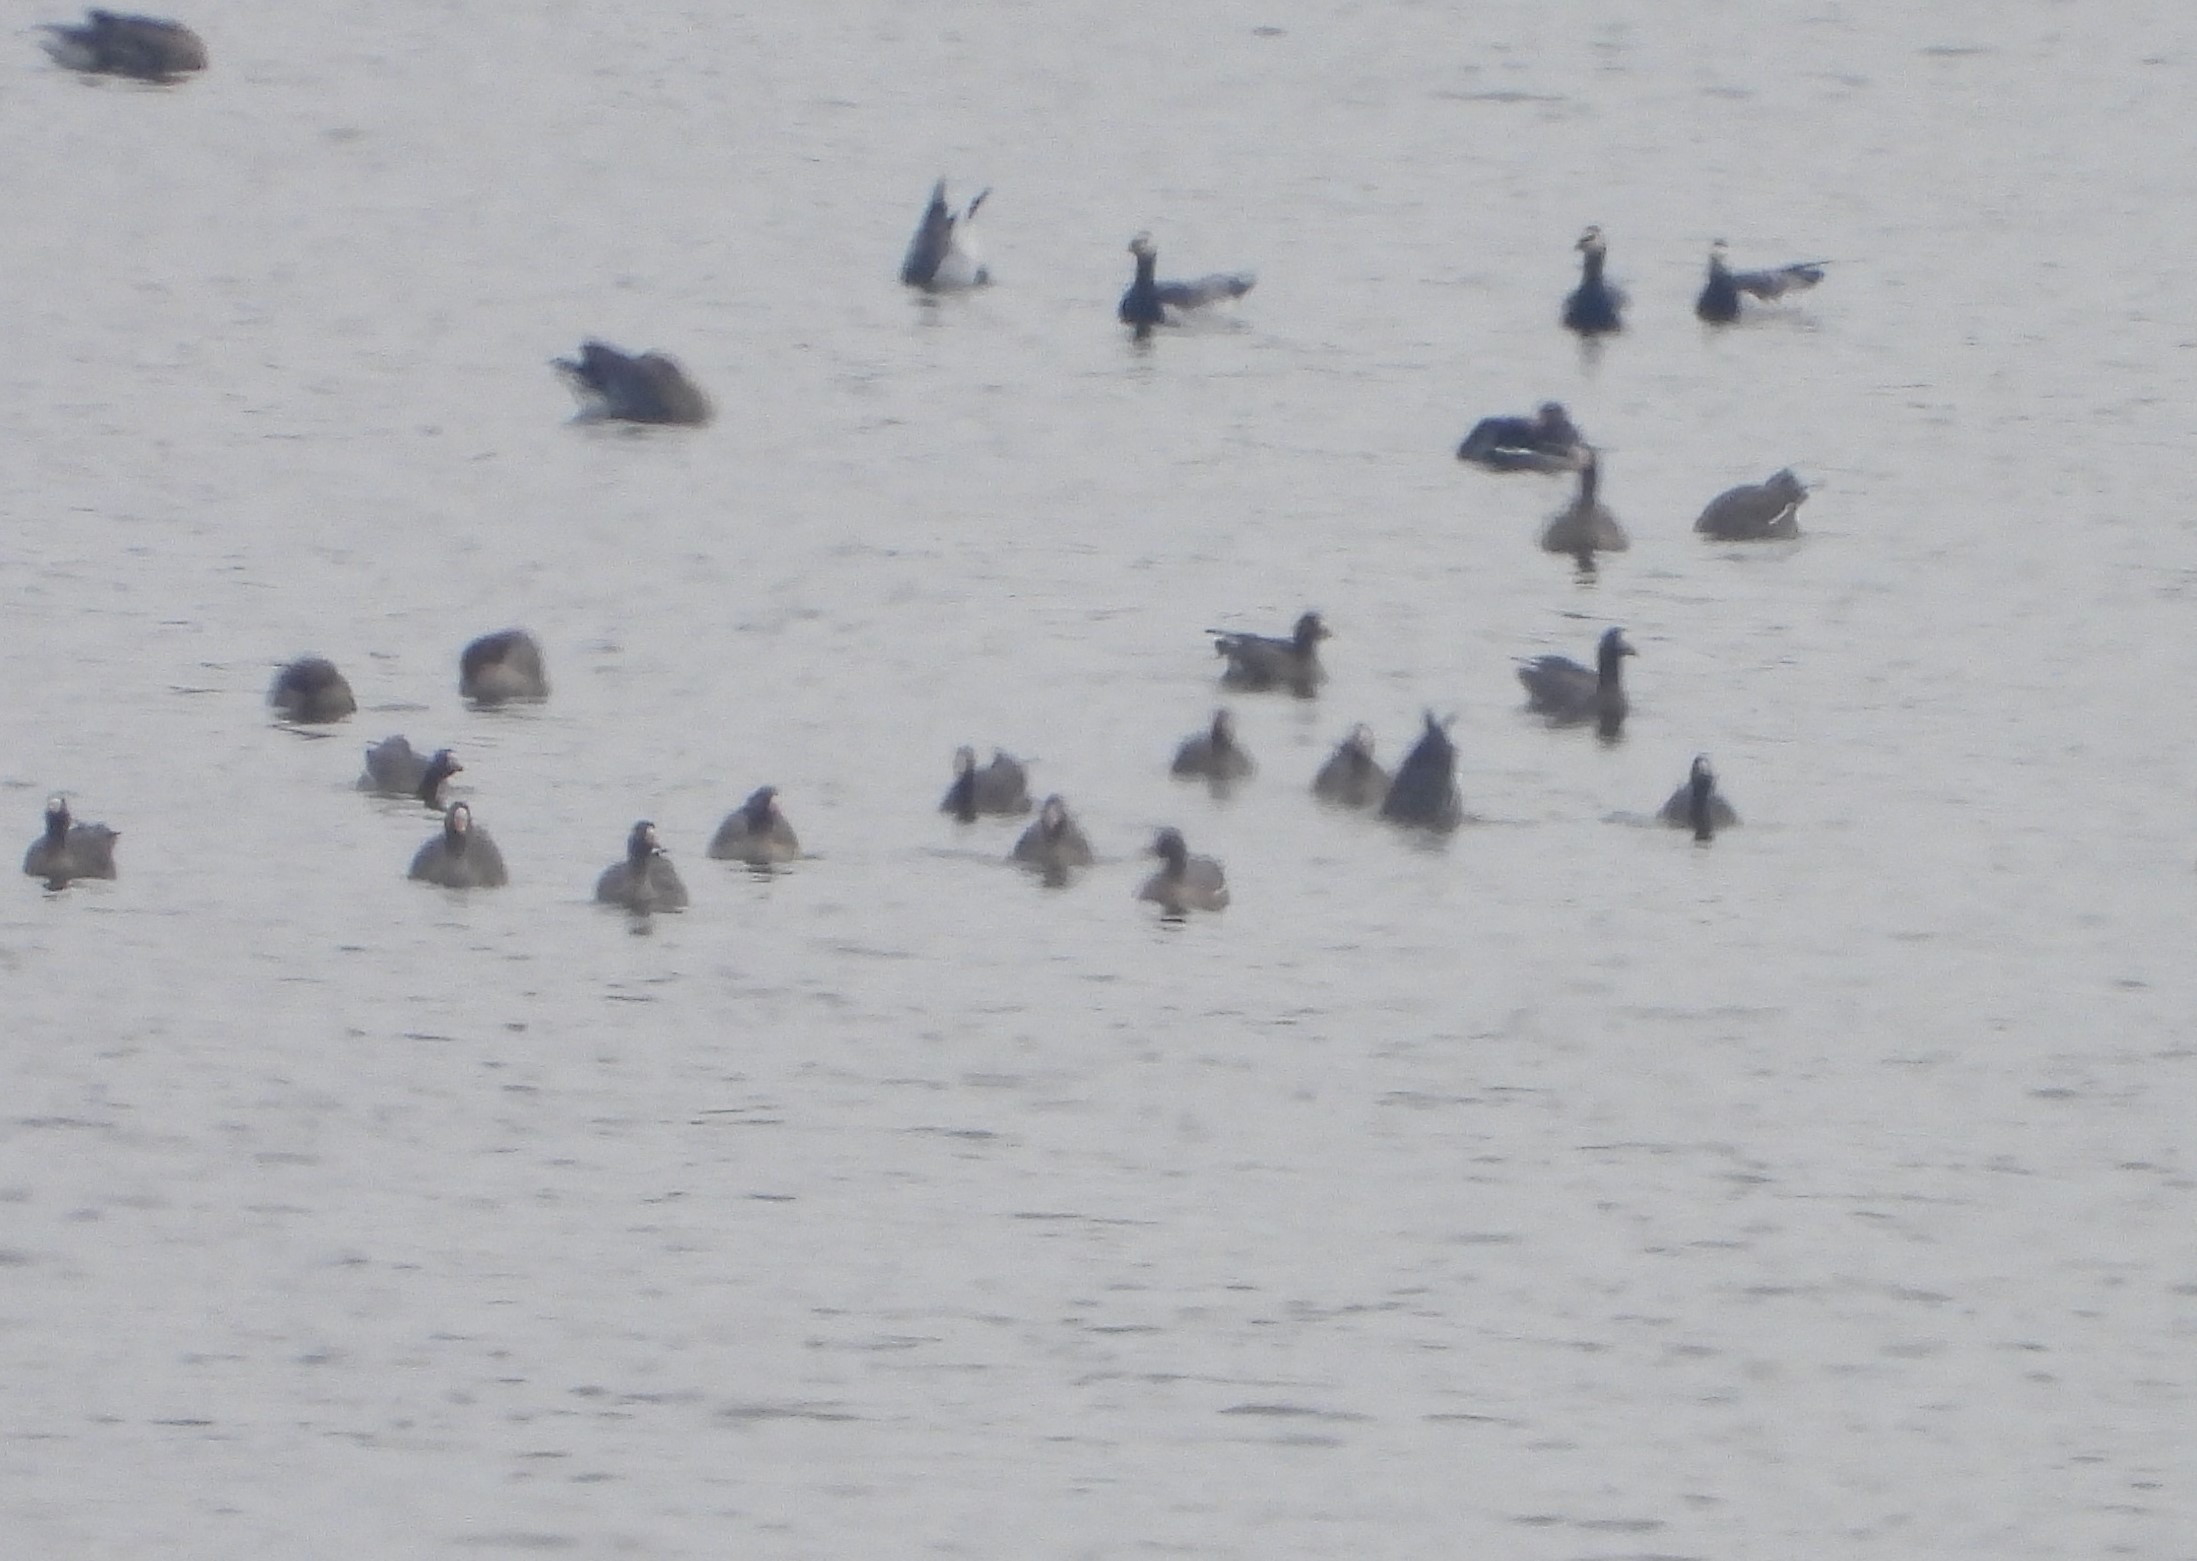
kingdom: Animalia
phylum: Chordata
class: Aves
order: Anseriformes
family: Anatidae
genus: Anser
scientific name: Anser albifrons
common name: Blisgås
